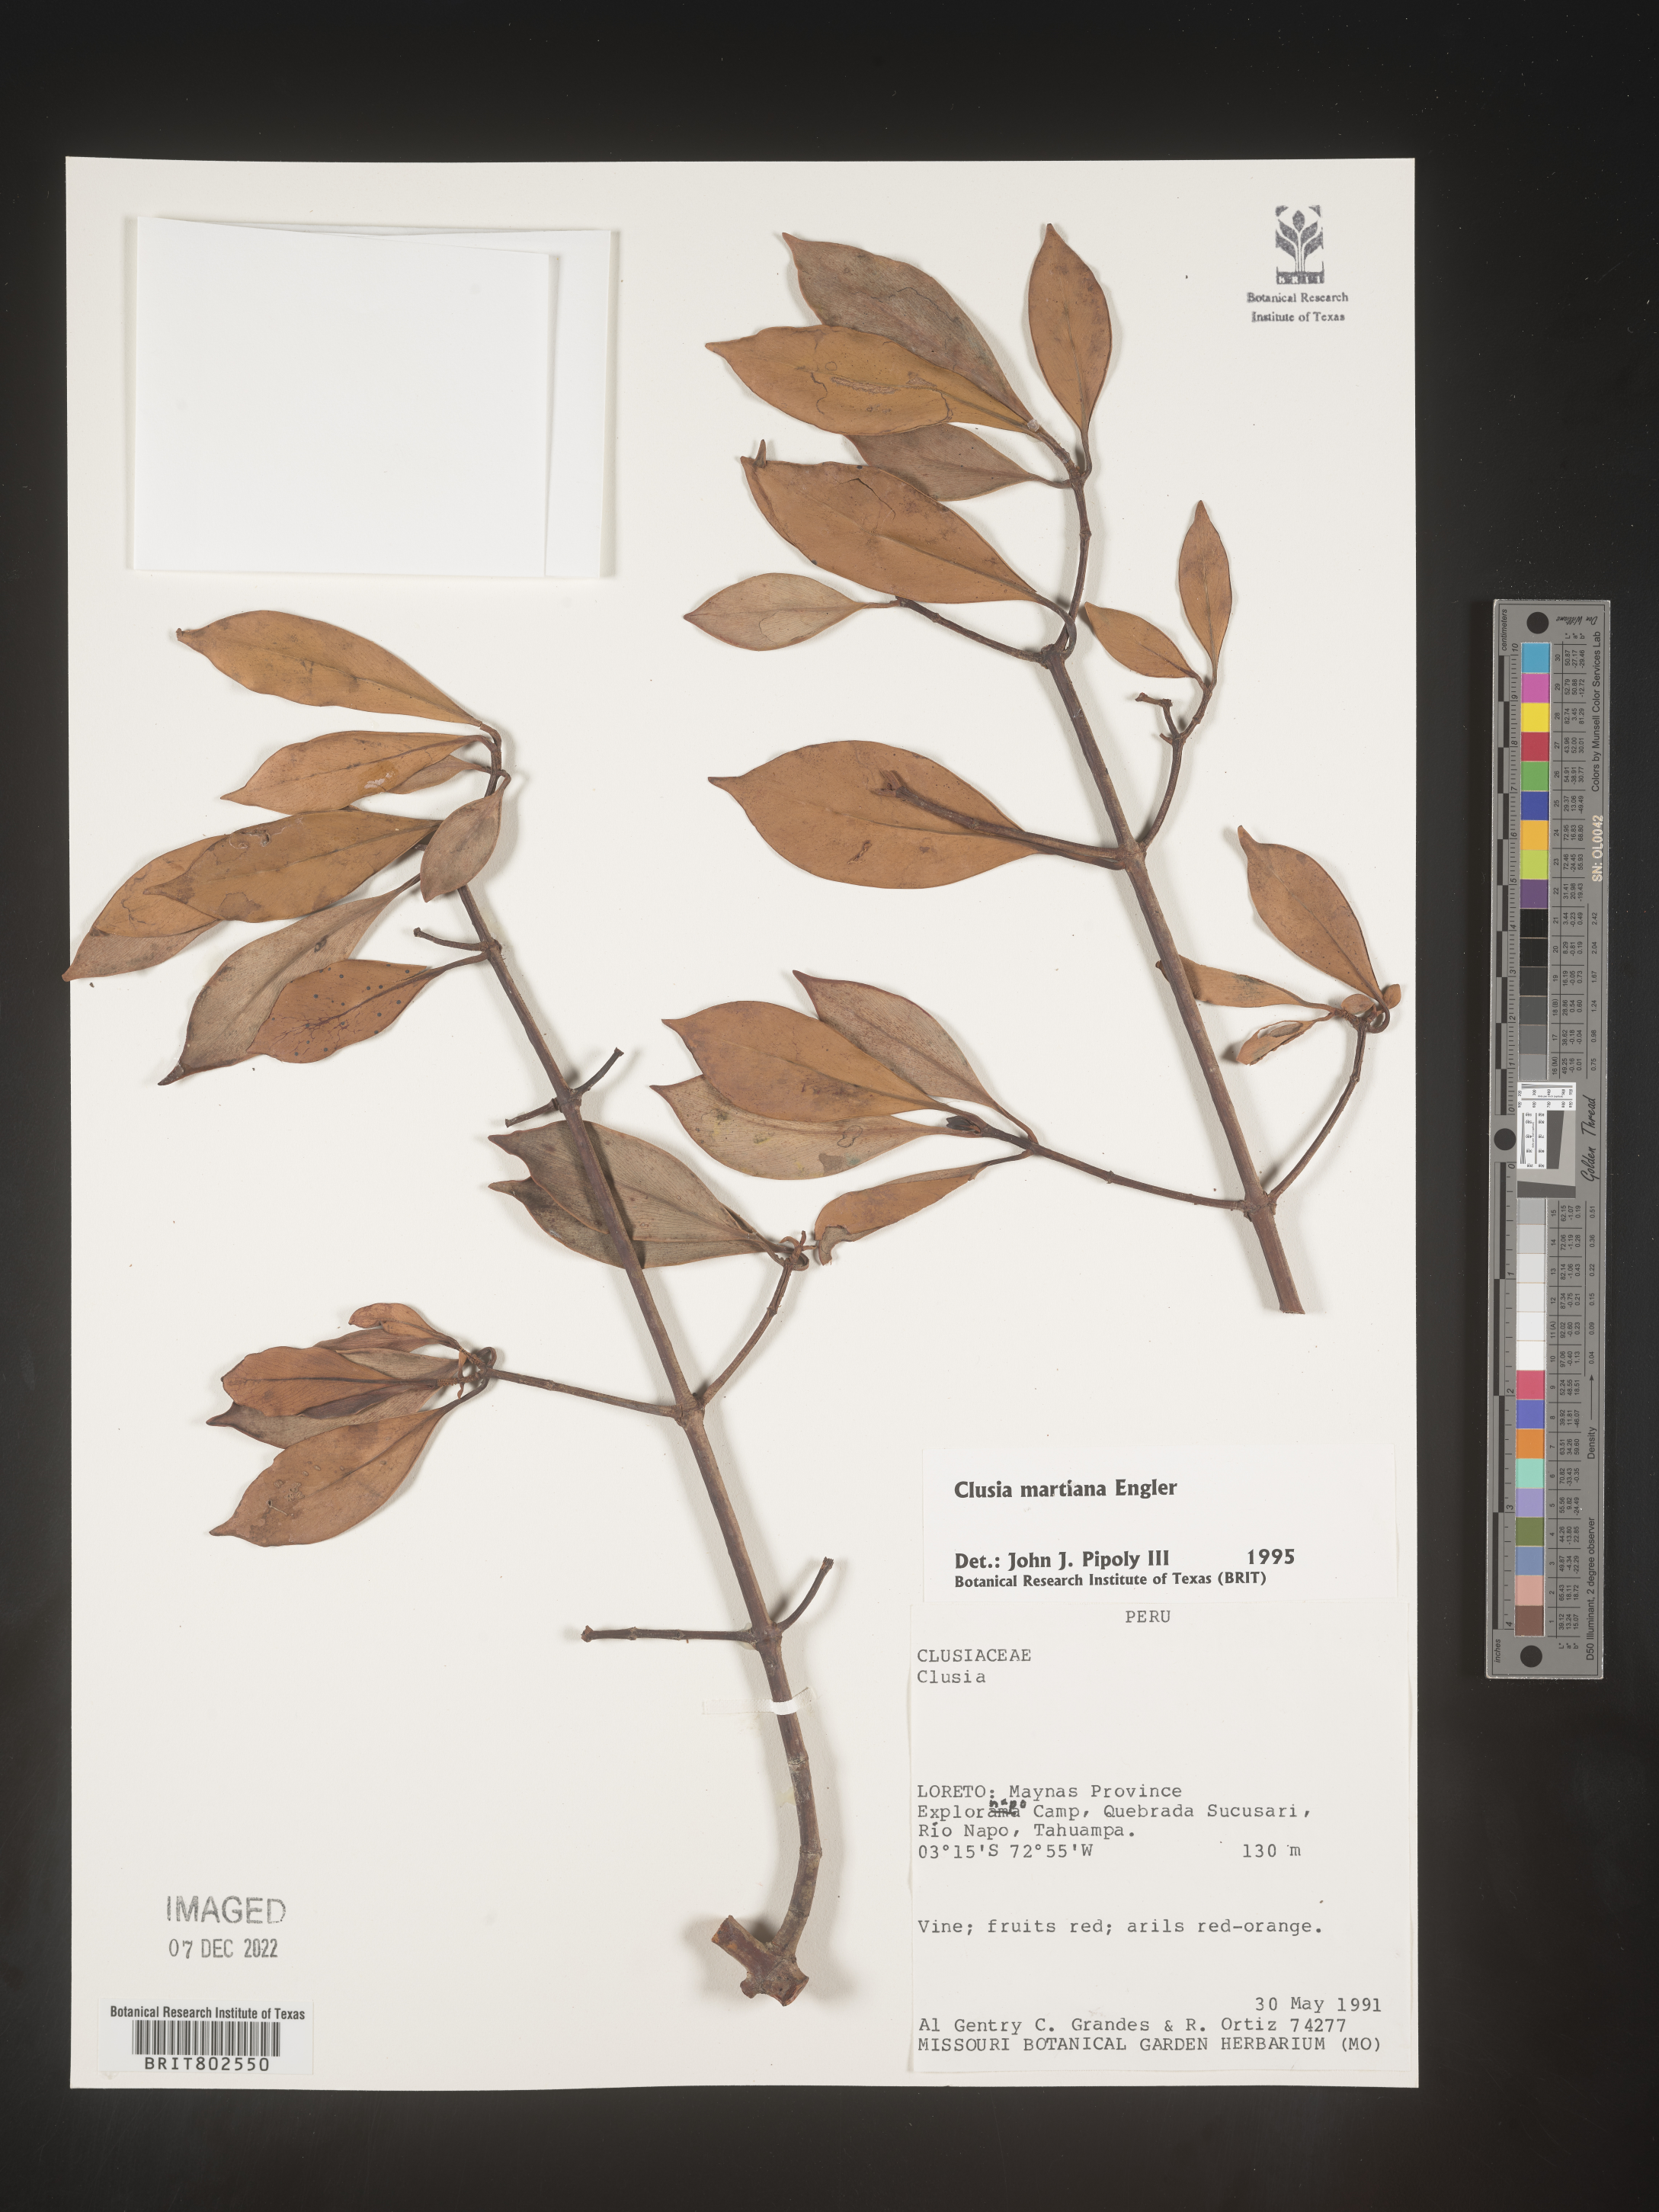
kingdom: Plantae
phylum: Tracheophyta
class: Magnoliopsida
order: Malpighiales
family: Clusiaceae
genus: Clusia
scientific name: Clusia
